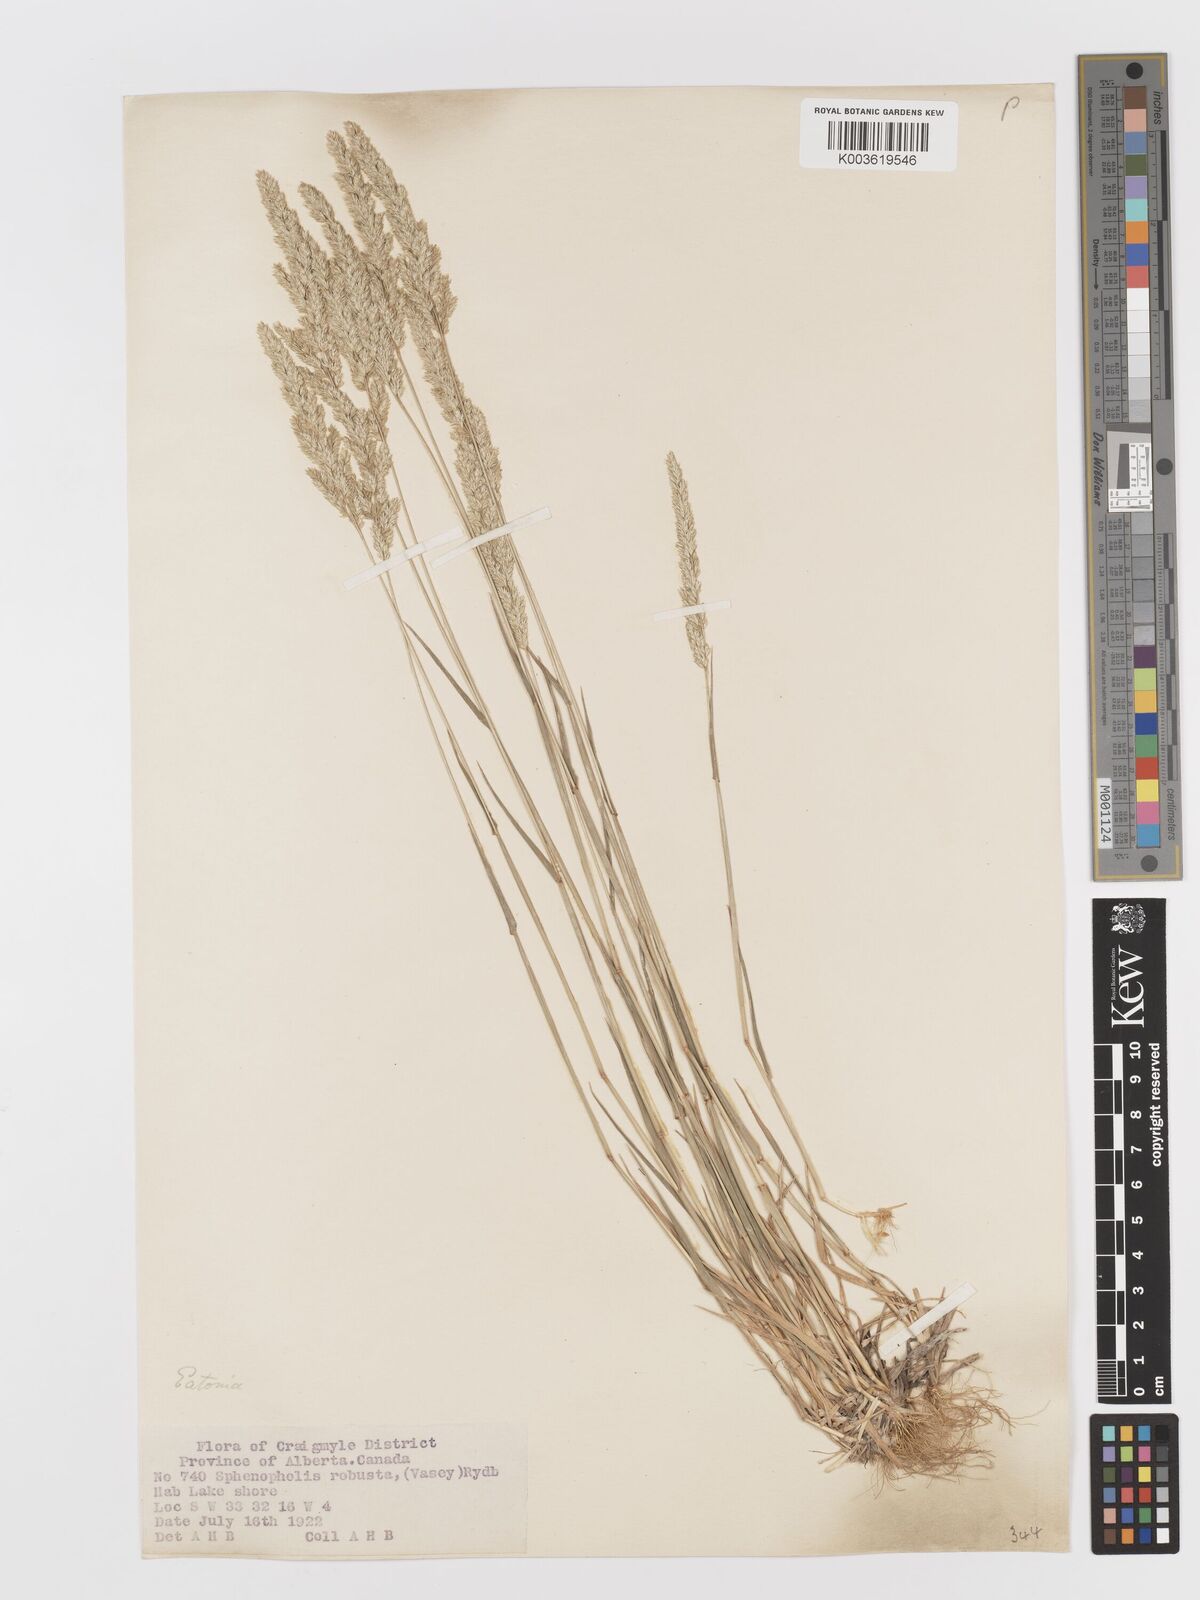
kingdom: Plantae
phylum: Tracheophyta
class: Liliopsida
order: Poales
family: Poaceae
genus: Sphenopholis
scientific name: Sphenopholis obtusata
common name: Prairie grass
